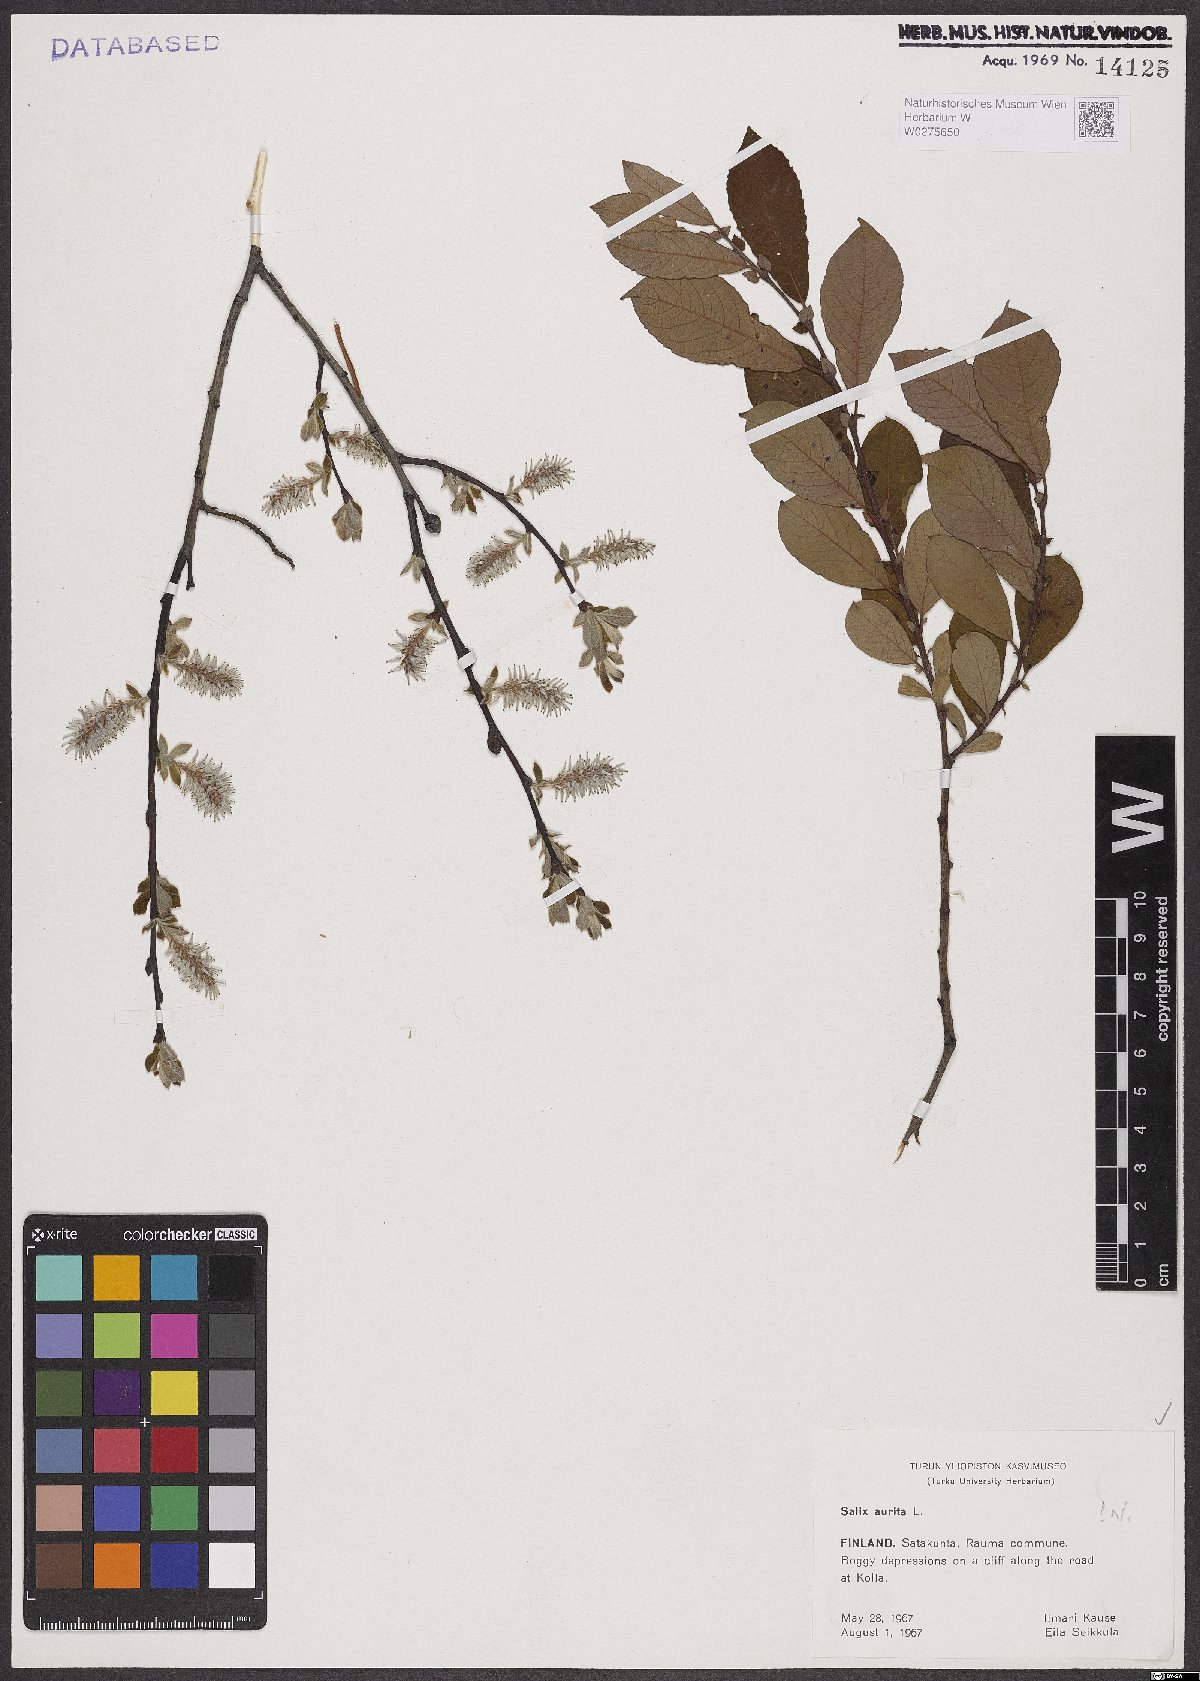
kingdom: Plantae
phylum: Tracheophyta
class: Magnoliopsida
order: Malpighiales
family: Salicaceae
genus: Salix
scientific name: Salix aurita
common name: Eared willow
